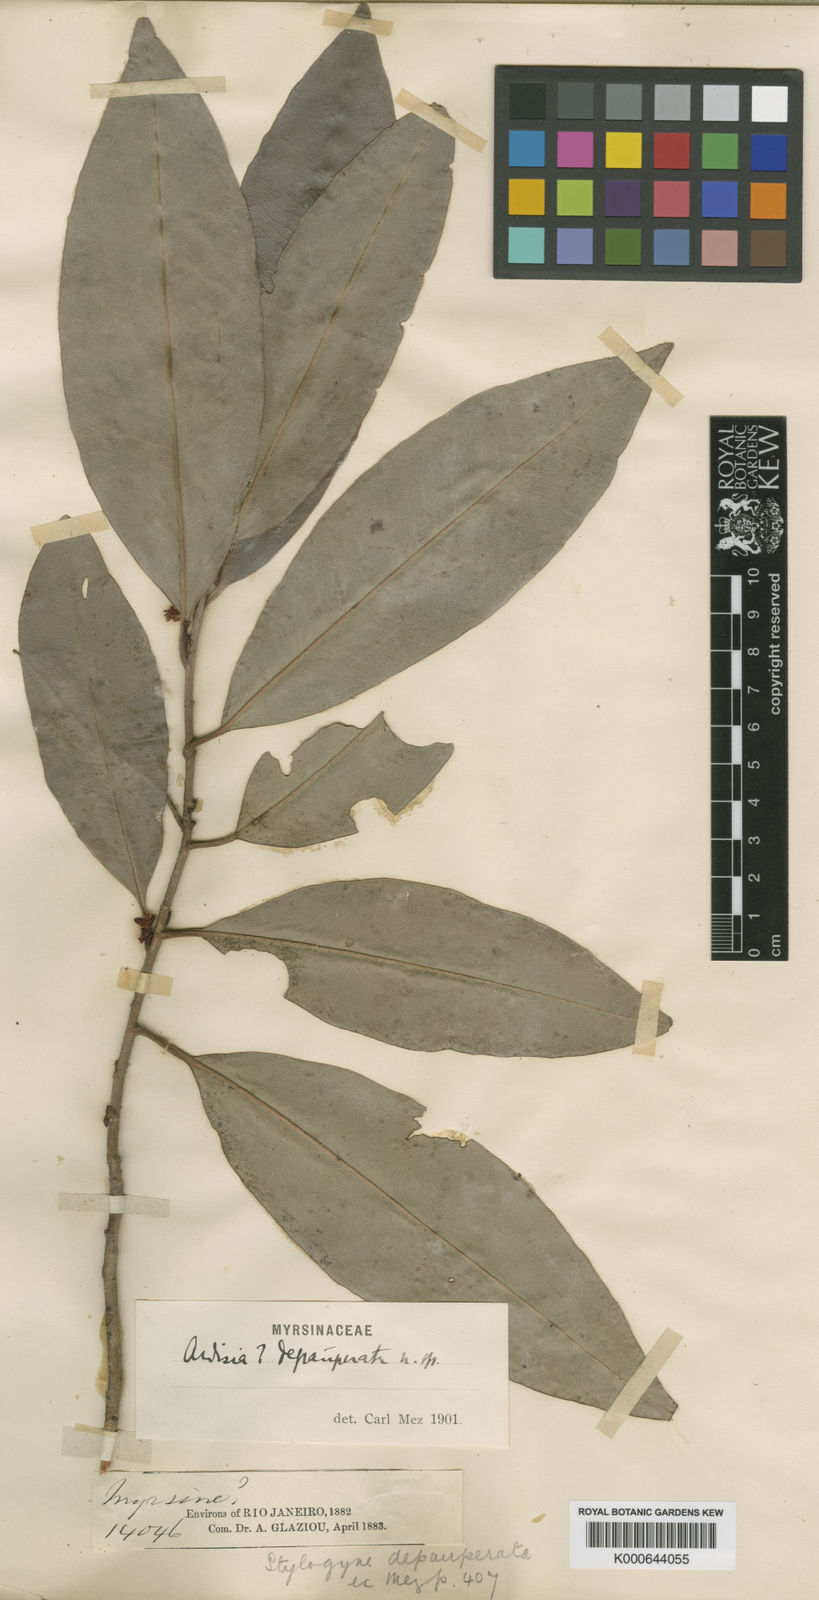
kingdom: Plantae
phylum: Tracheophyta
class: Magnoliopsida
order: Ericales
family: Primulaceae
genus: Stylogyne
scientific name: Stylogyne depauperata
